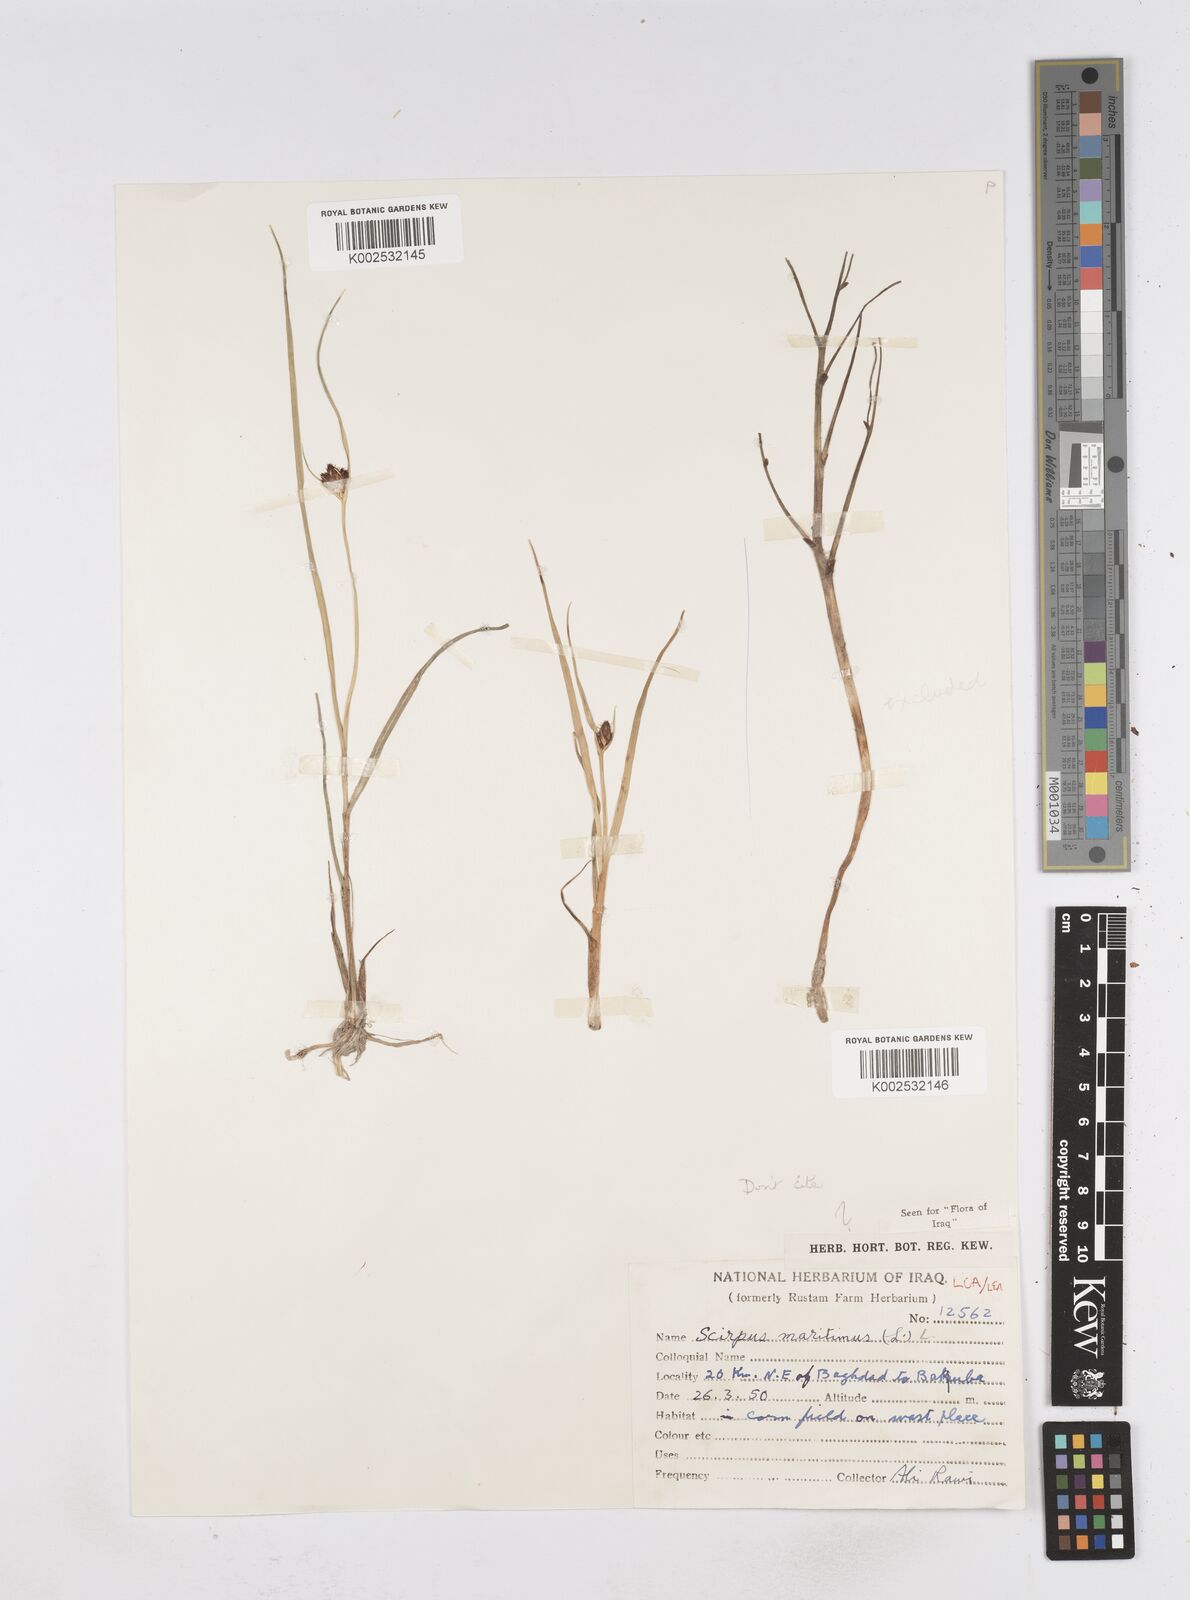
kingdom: Plantae
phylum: Tracheophyta
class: Liliopsida
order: Poales
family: Cyperaceae
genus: Bolboschoenus
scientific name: Bolboschoenus maritimus
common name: Sea club-rush
